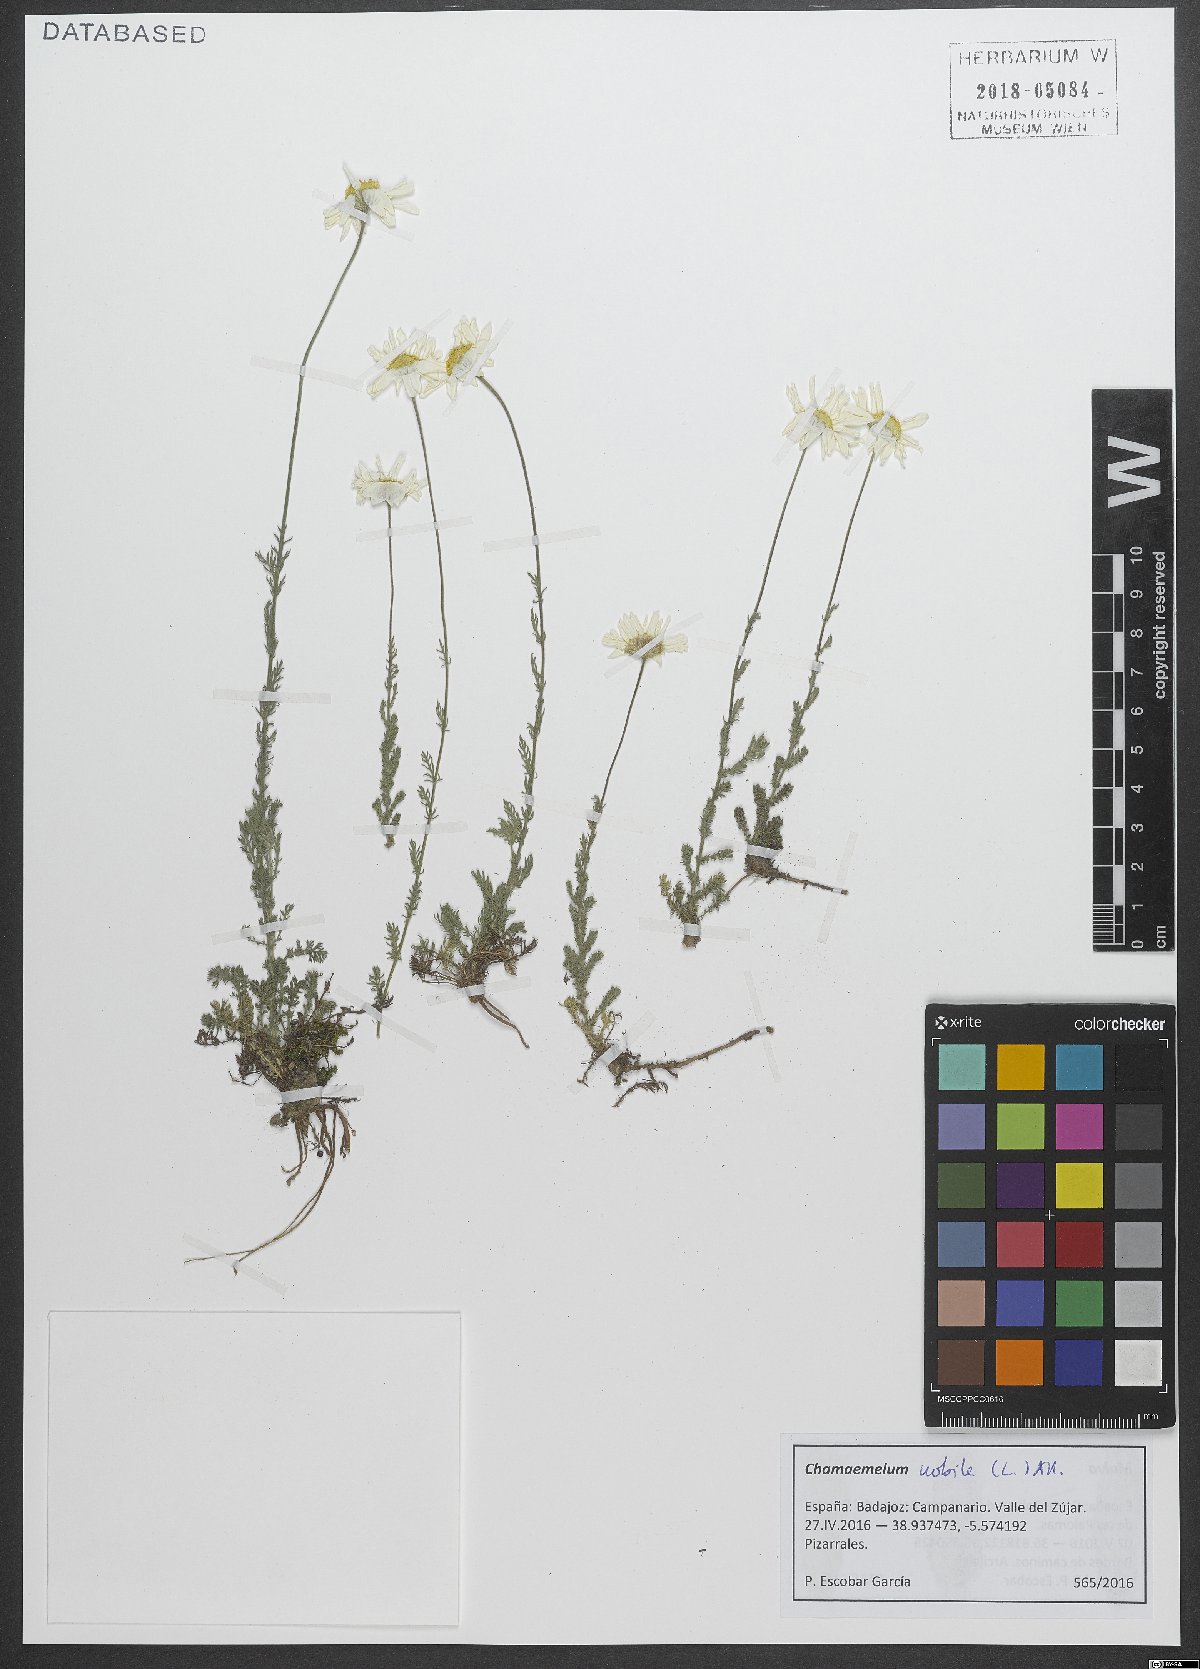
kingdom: Plantae
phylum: Tracheophyta
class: Magnoliopsida
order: Asterales
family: Asteraceae
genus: Chamaemelum
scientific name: Chamaemelum nobile
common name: Roman chamomile
